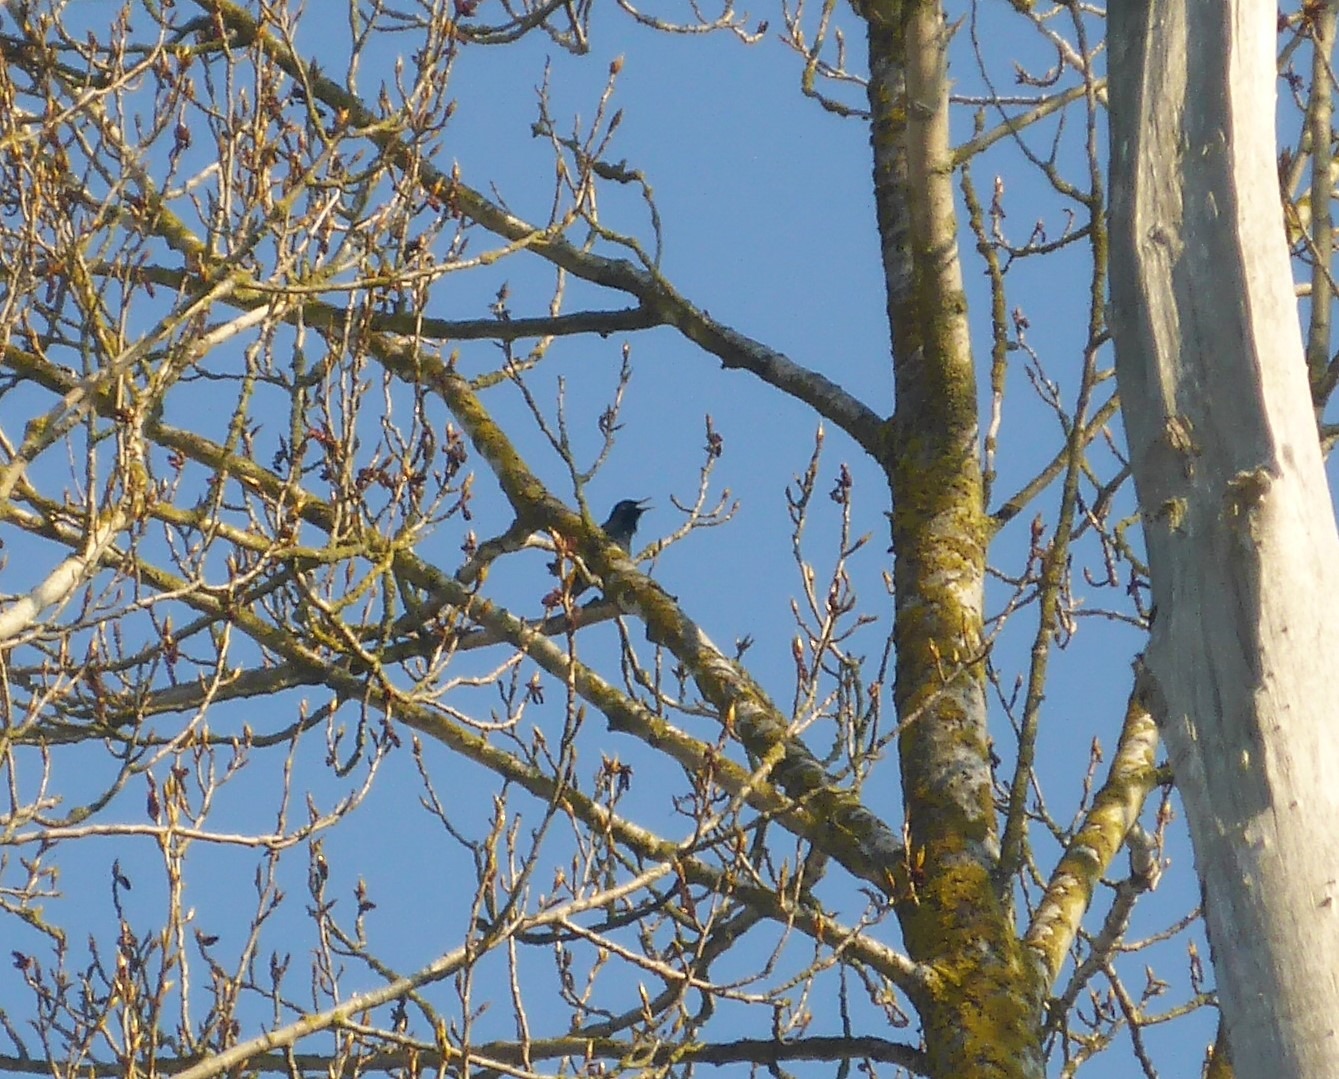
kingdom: Animalia
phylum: Chordata
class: Aves
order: Passeriformes
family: Sturnidae
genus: Sturnus
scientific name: Sturnus vulgaris
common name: Stær
